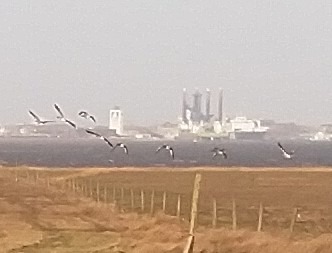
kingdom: Animalia
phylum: Chordata
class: Aves
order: Anseriformes
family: Anatidae
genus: Anser
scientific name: Anser anser
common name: Grågås
